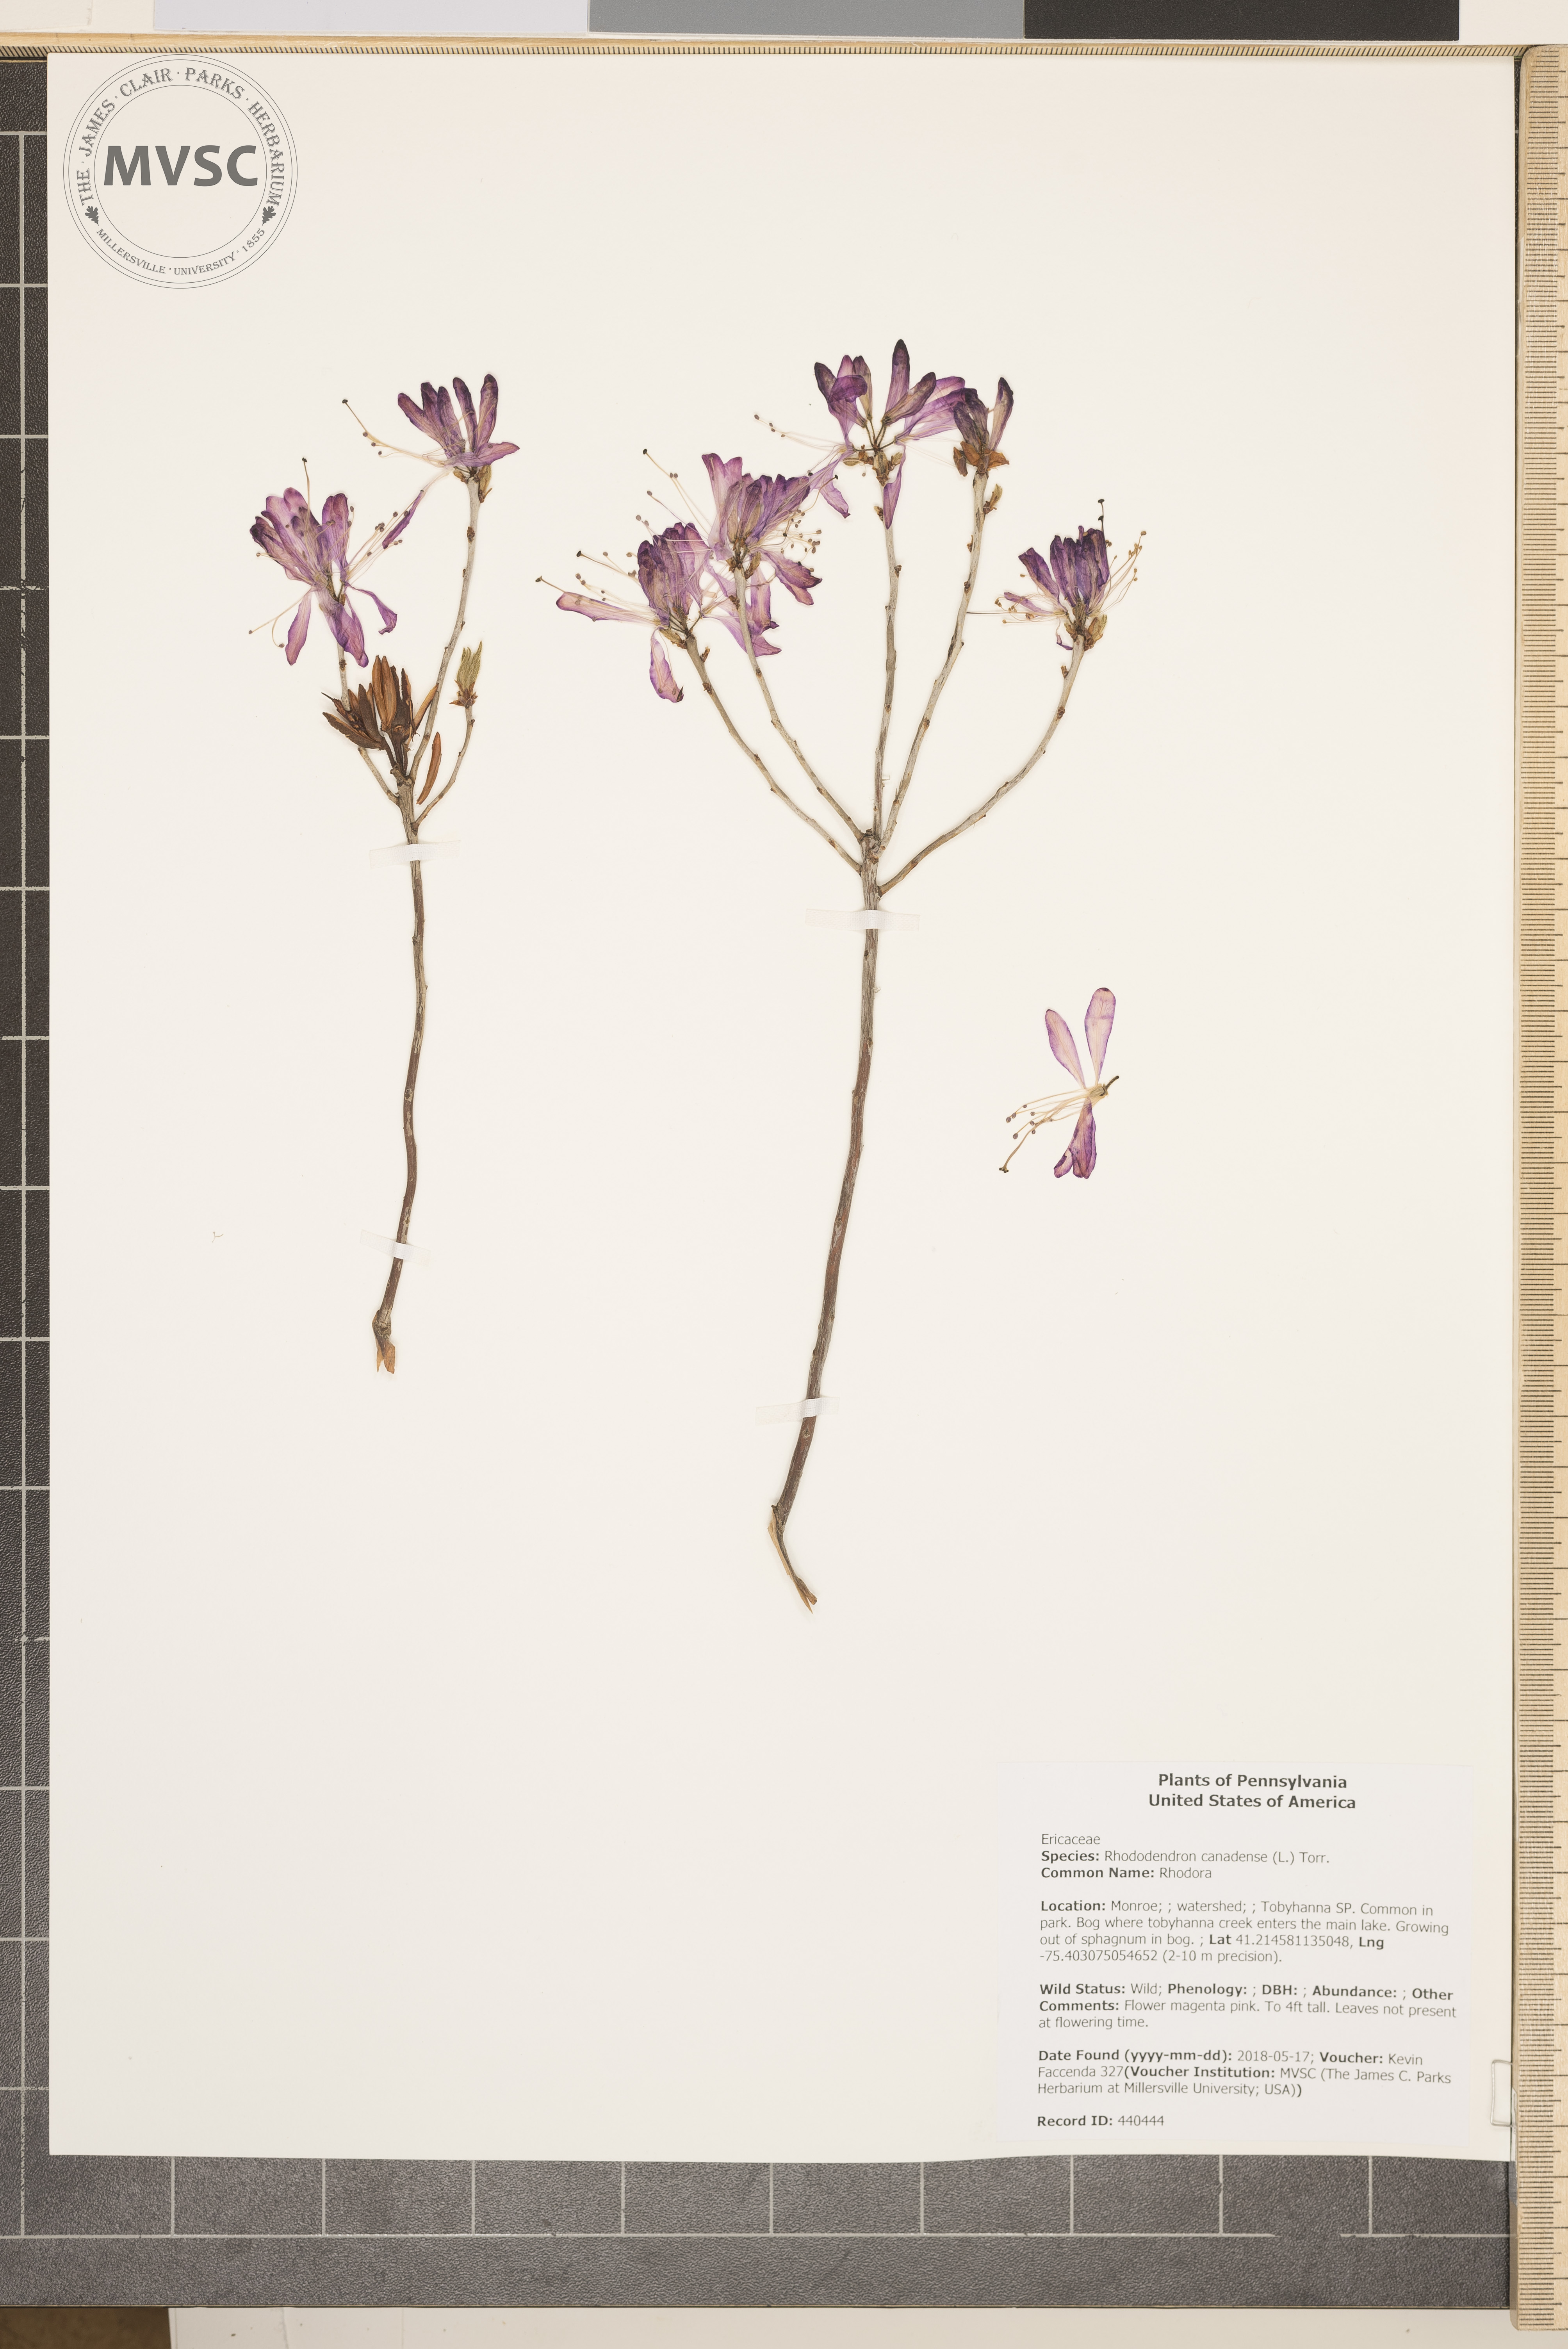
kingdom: Plantae
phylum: Tracheophyta
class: Magnoliopsida
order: Ericales
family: Ericaceae
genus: Rhododendron
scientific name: Rhododendron canadense
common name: Rhodora
